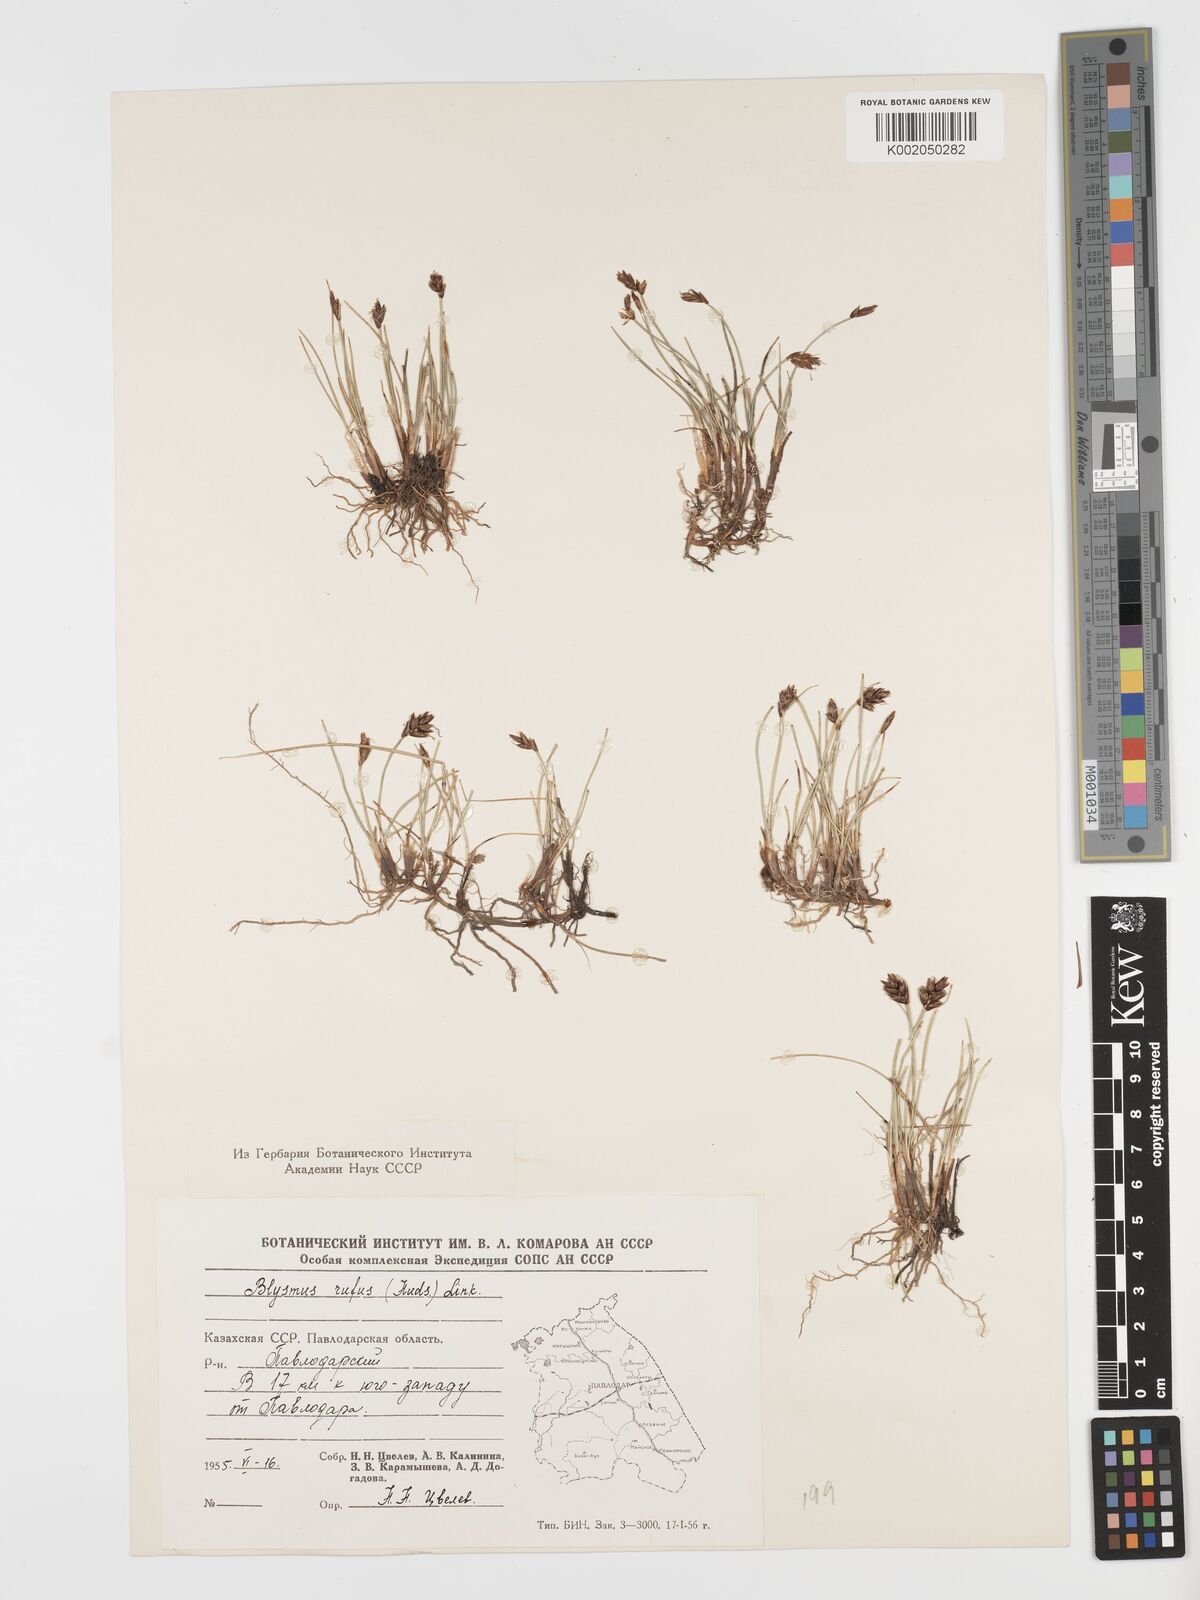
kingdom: Plantae
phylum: Tracheophyta
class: Liliopsida
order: Poales
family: Cyperaceae
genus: Blysmus
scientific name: Blysmus rufus
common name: Saltmarsh flat-sedge
